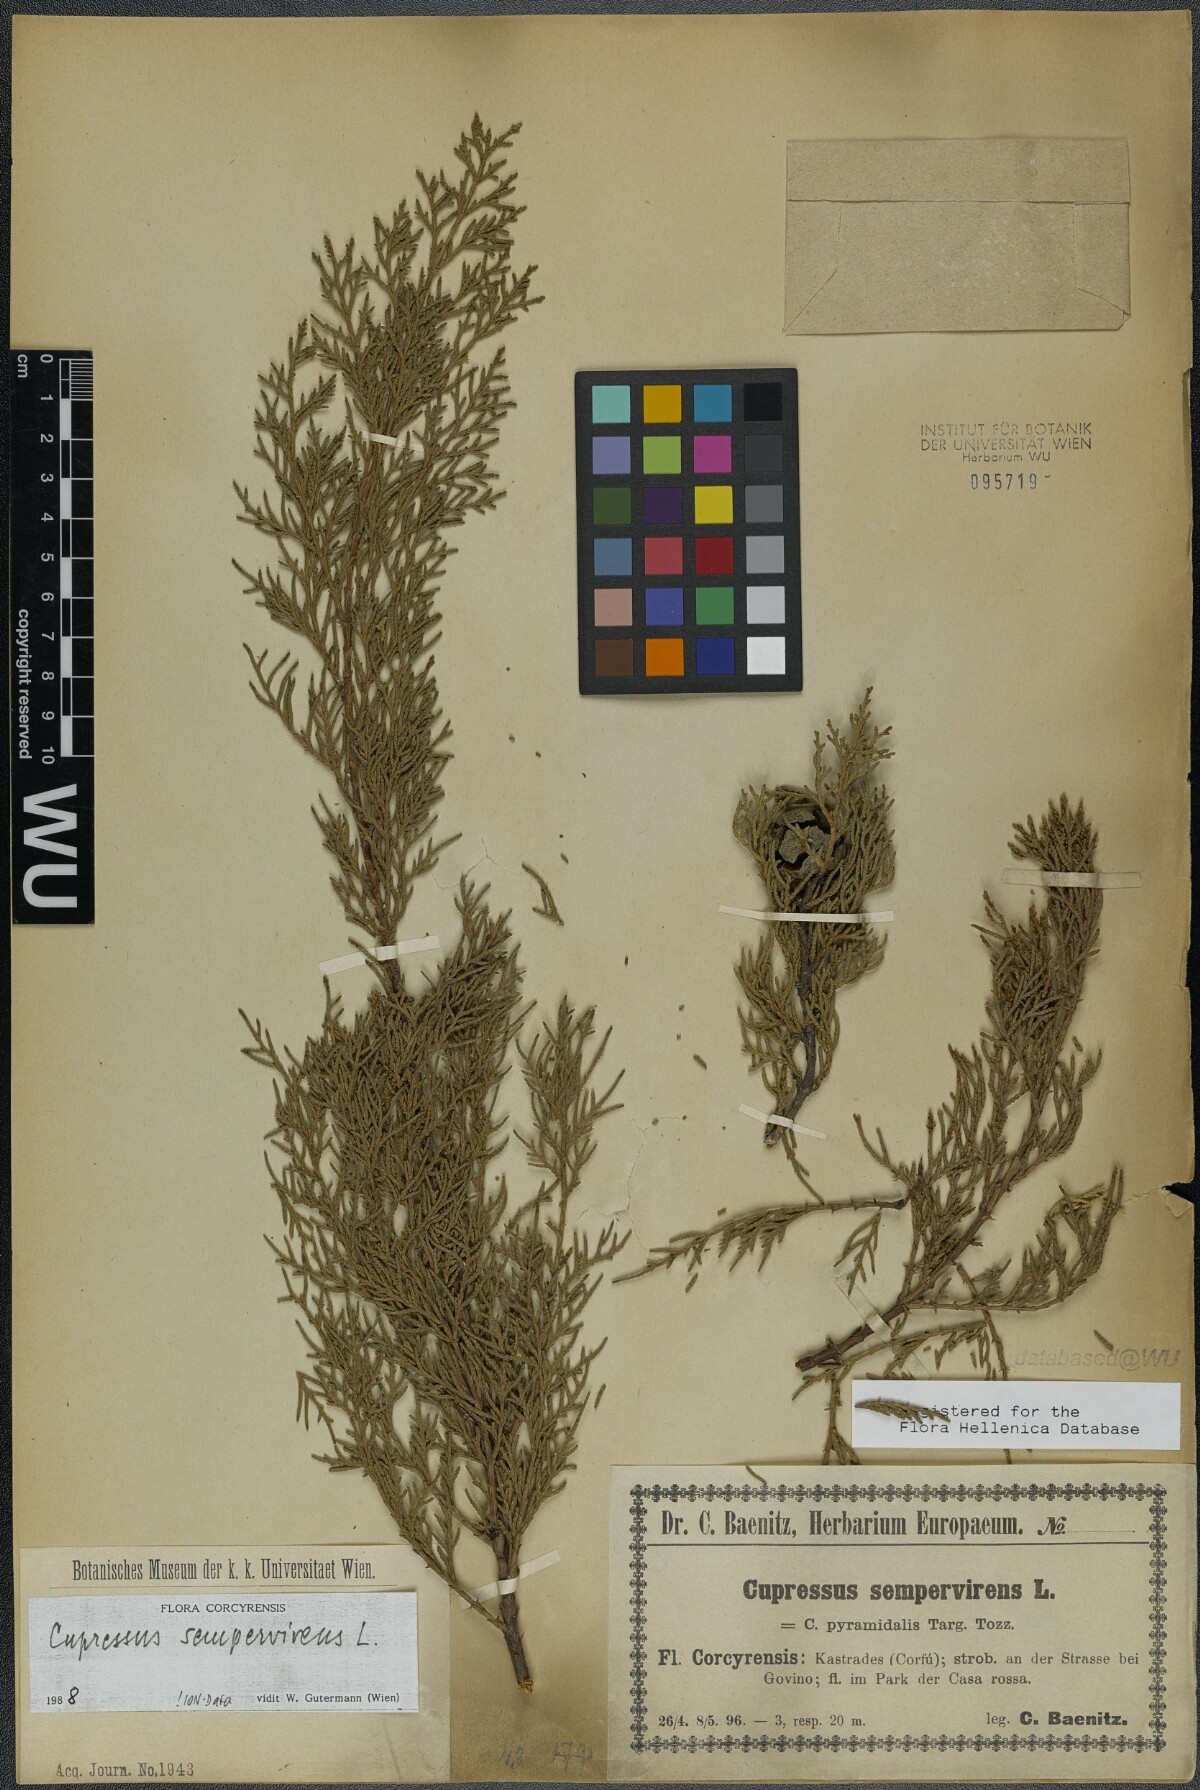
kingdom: Plantae
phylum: Tracheophyta
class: Pinopsida
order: Pinales
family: Cupressaceae
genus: Cupressus
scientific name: Cupressus sempervirens
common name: Italian cypress
